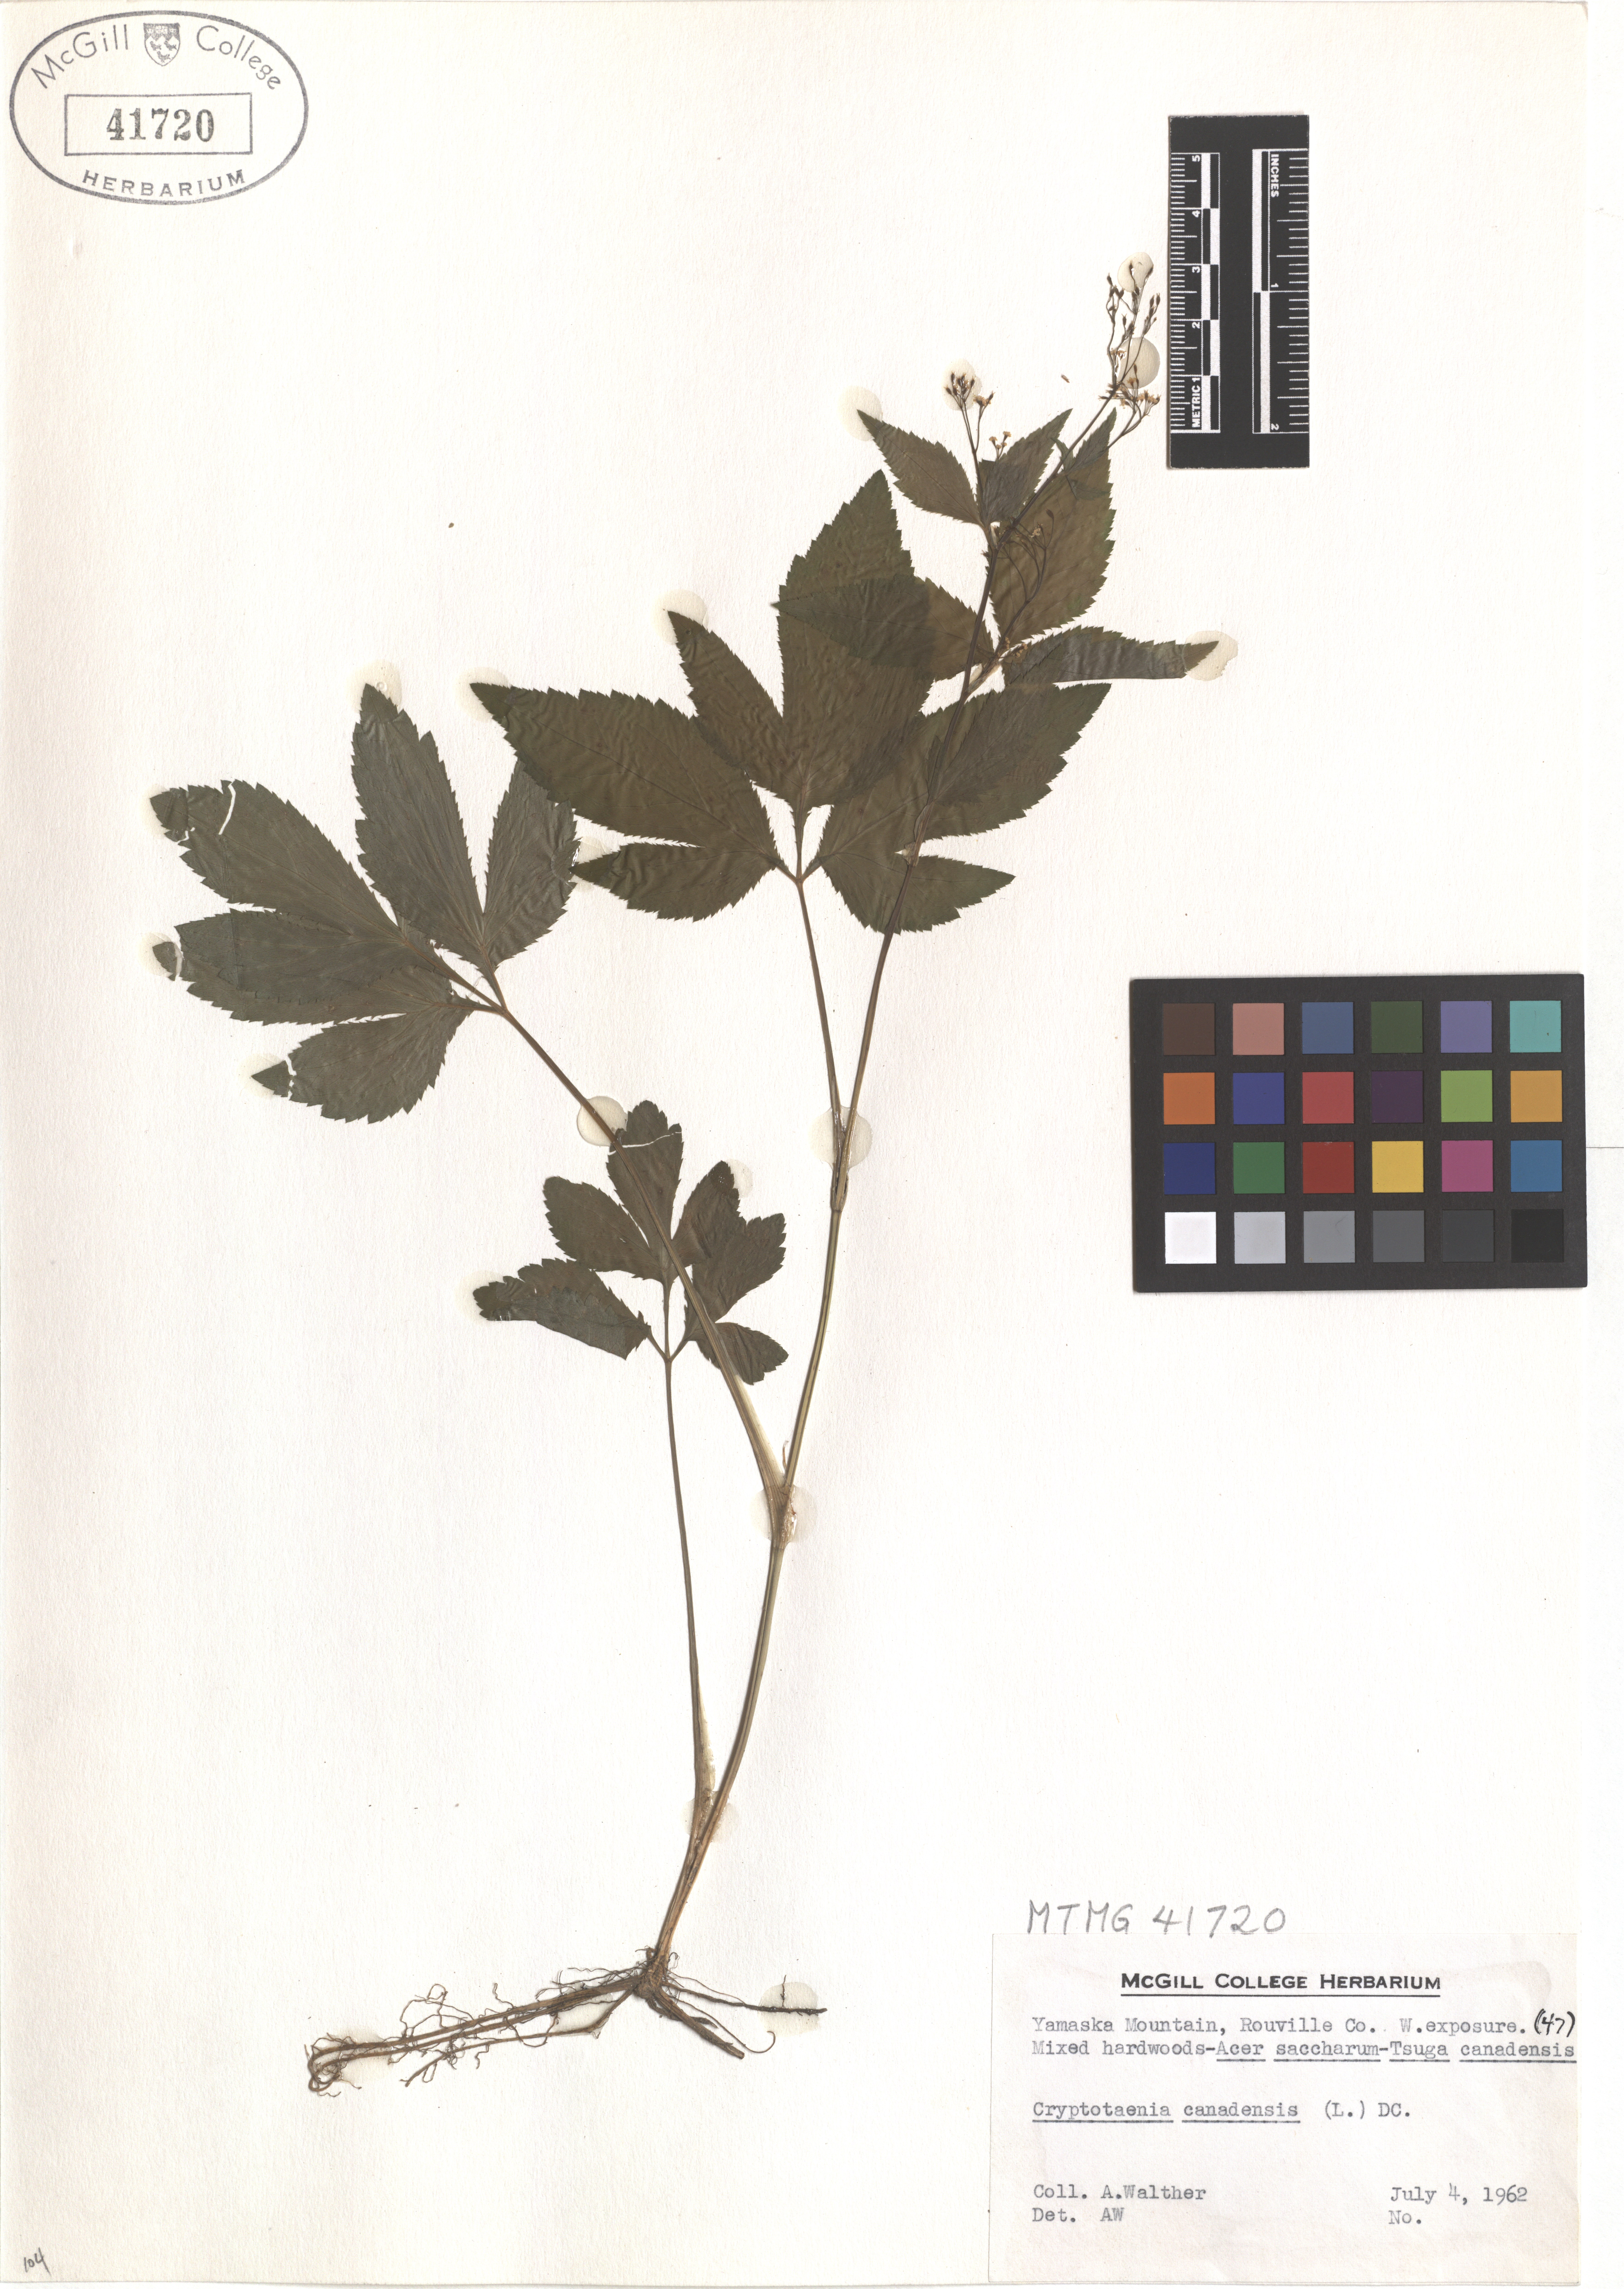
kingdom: Plantae
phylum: Tracheophyta
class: Magnoliopsida
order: Apiales
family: Apiaceae
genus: Cryptotaenia
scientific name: Cryptotaenia canadensis
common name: Honewort
